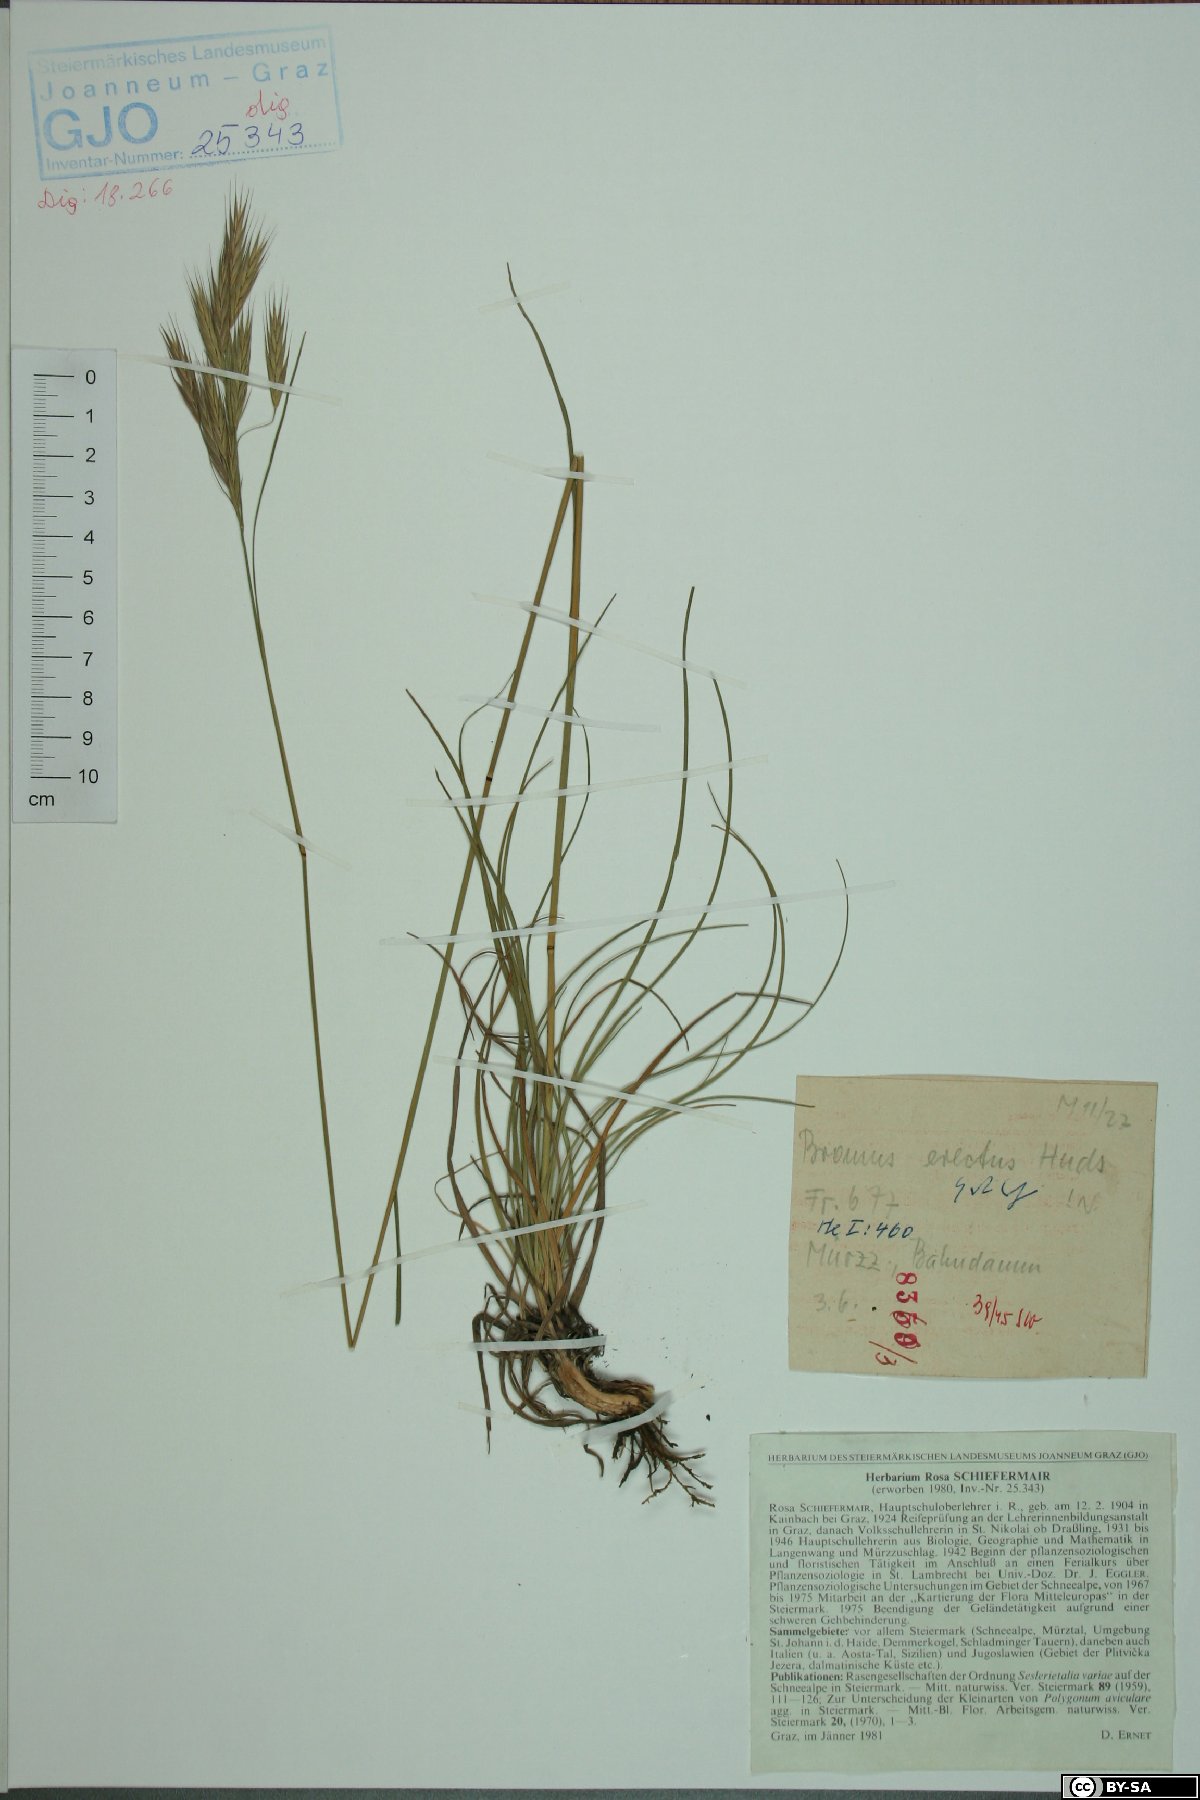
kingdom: Plantae
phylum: Tracheophyta
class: Liliopsida
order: Poales
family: Poaceae
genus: Bromus
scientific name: Bromus erectus
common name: Erect brome
